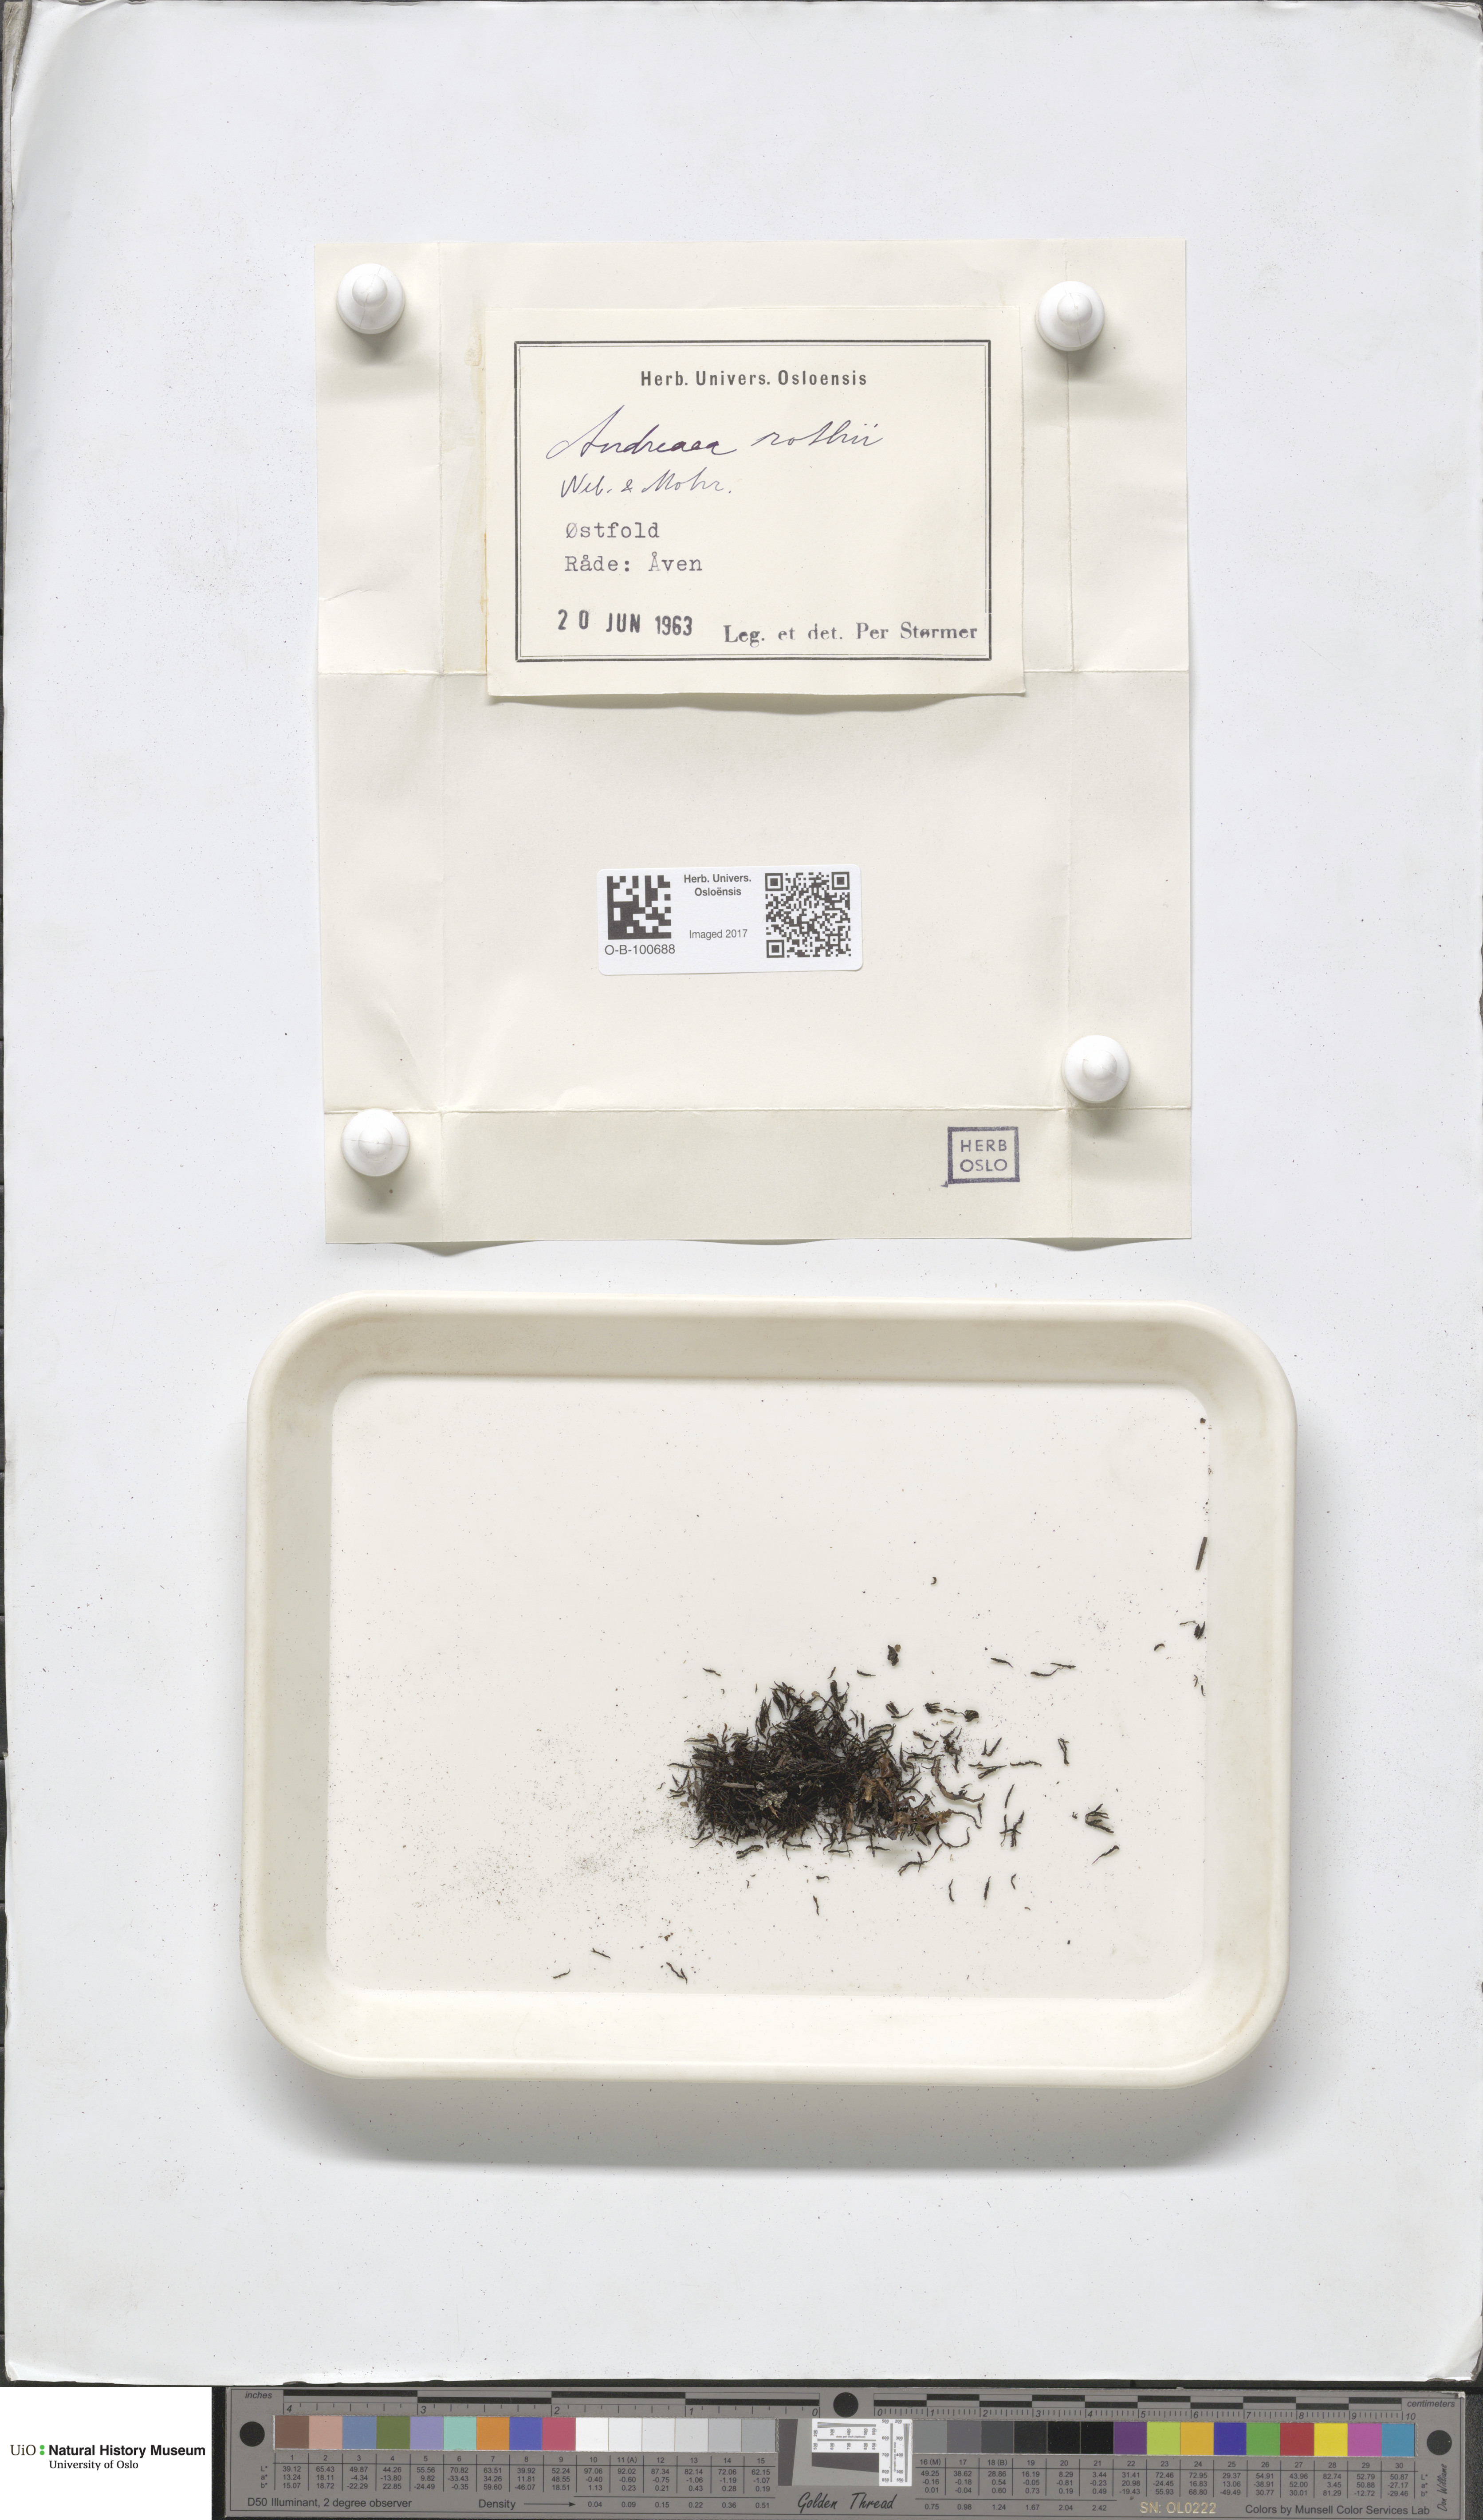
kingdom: Plantae
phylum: Bryophyta
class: Andreaeopsida
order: Andreaeales
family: Andreaeaceae
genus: Andreaea
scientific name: Andreaea rothii
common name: Dusky rock moss
